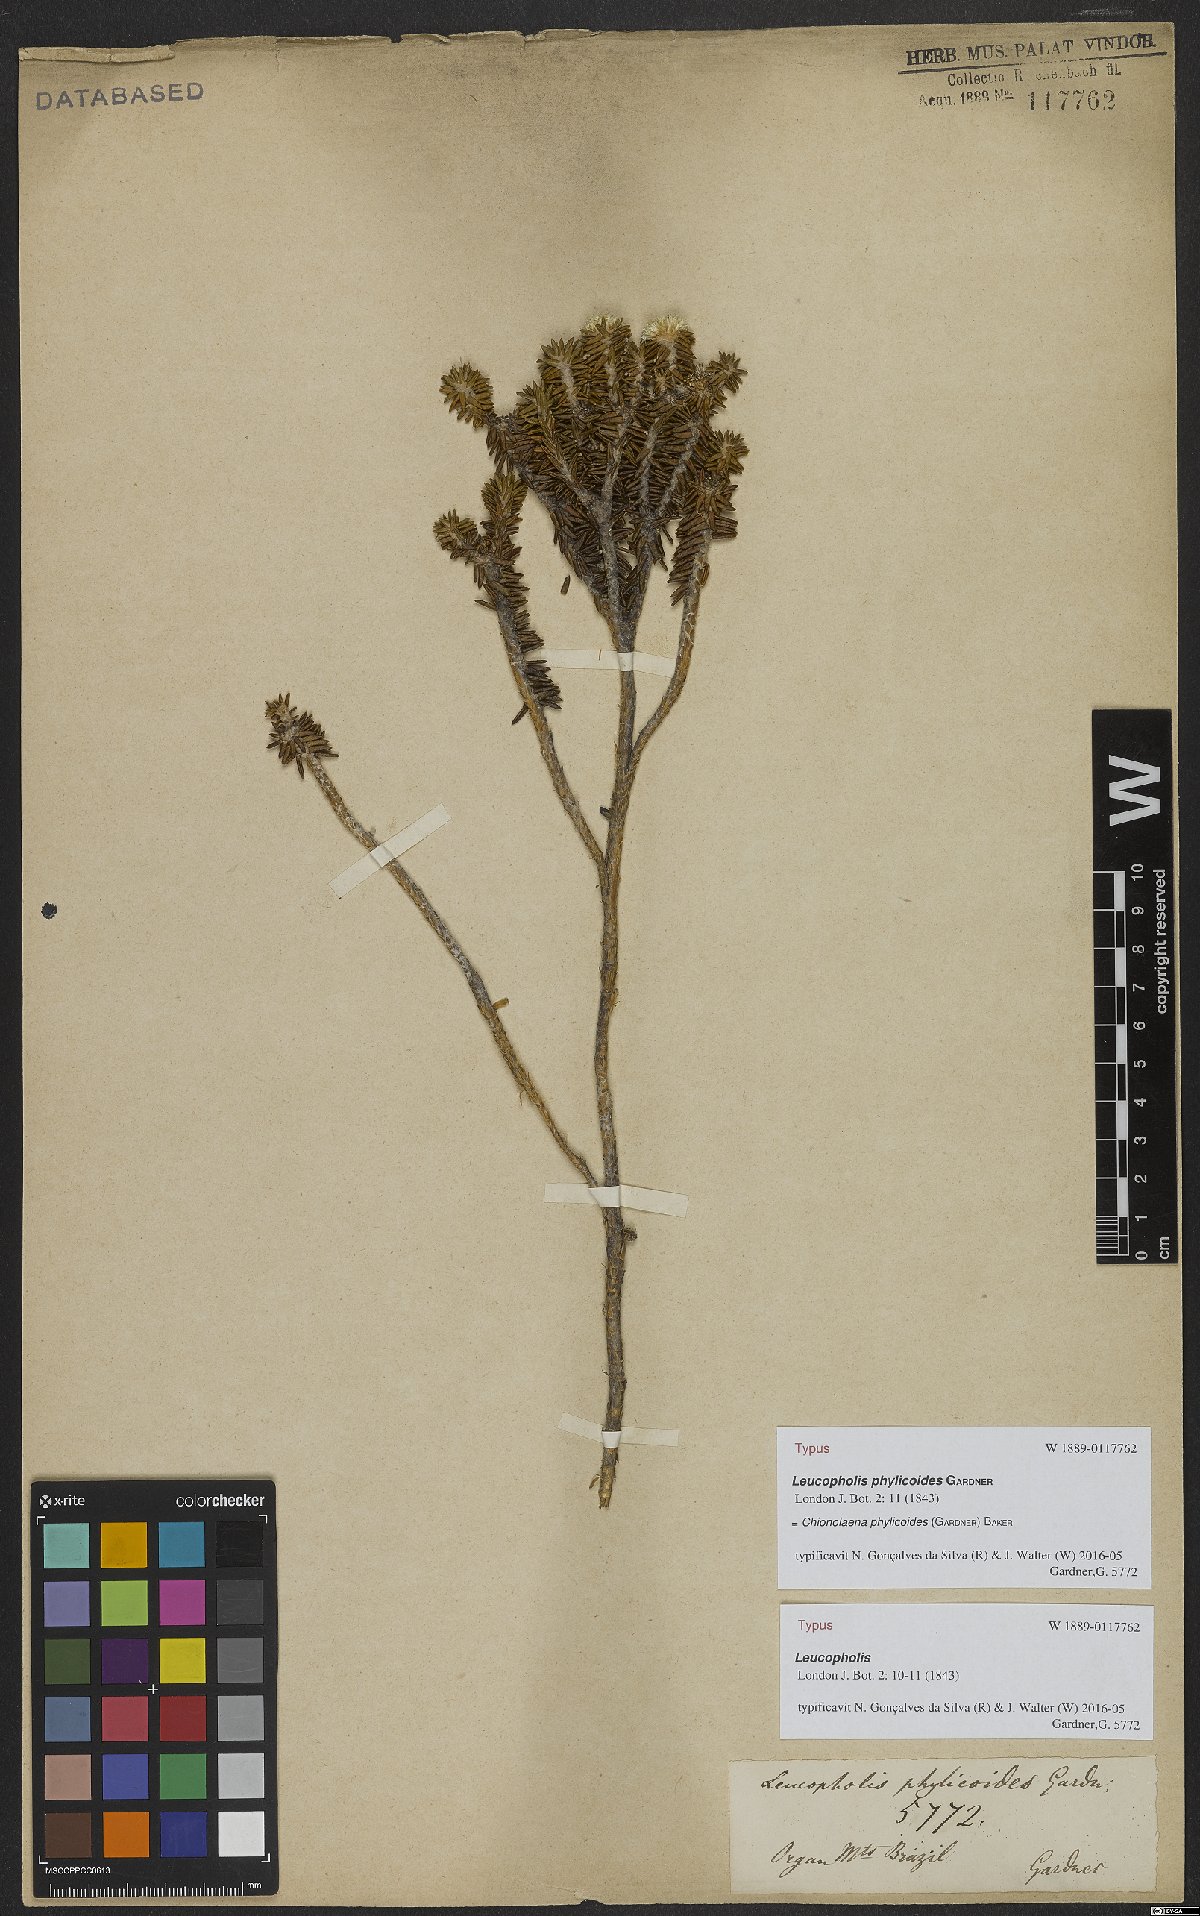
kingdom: Plantae
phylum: Tracheophyta
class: Magnoliopsida
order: Asterales
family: Asteraceae
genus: Chionolaena
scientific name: Chionolaena phylicoides
